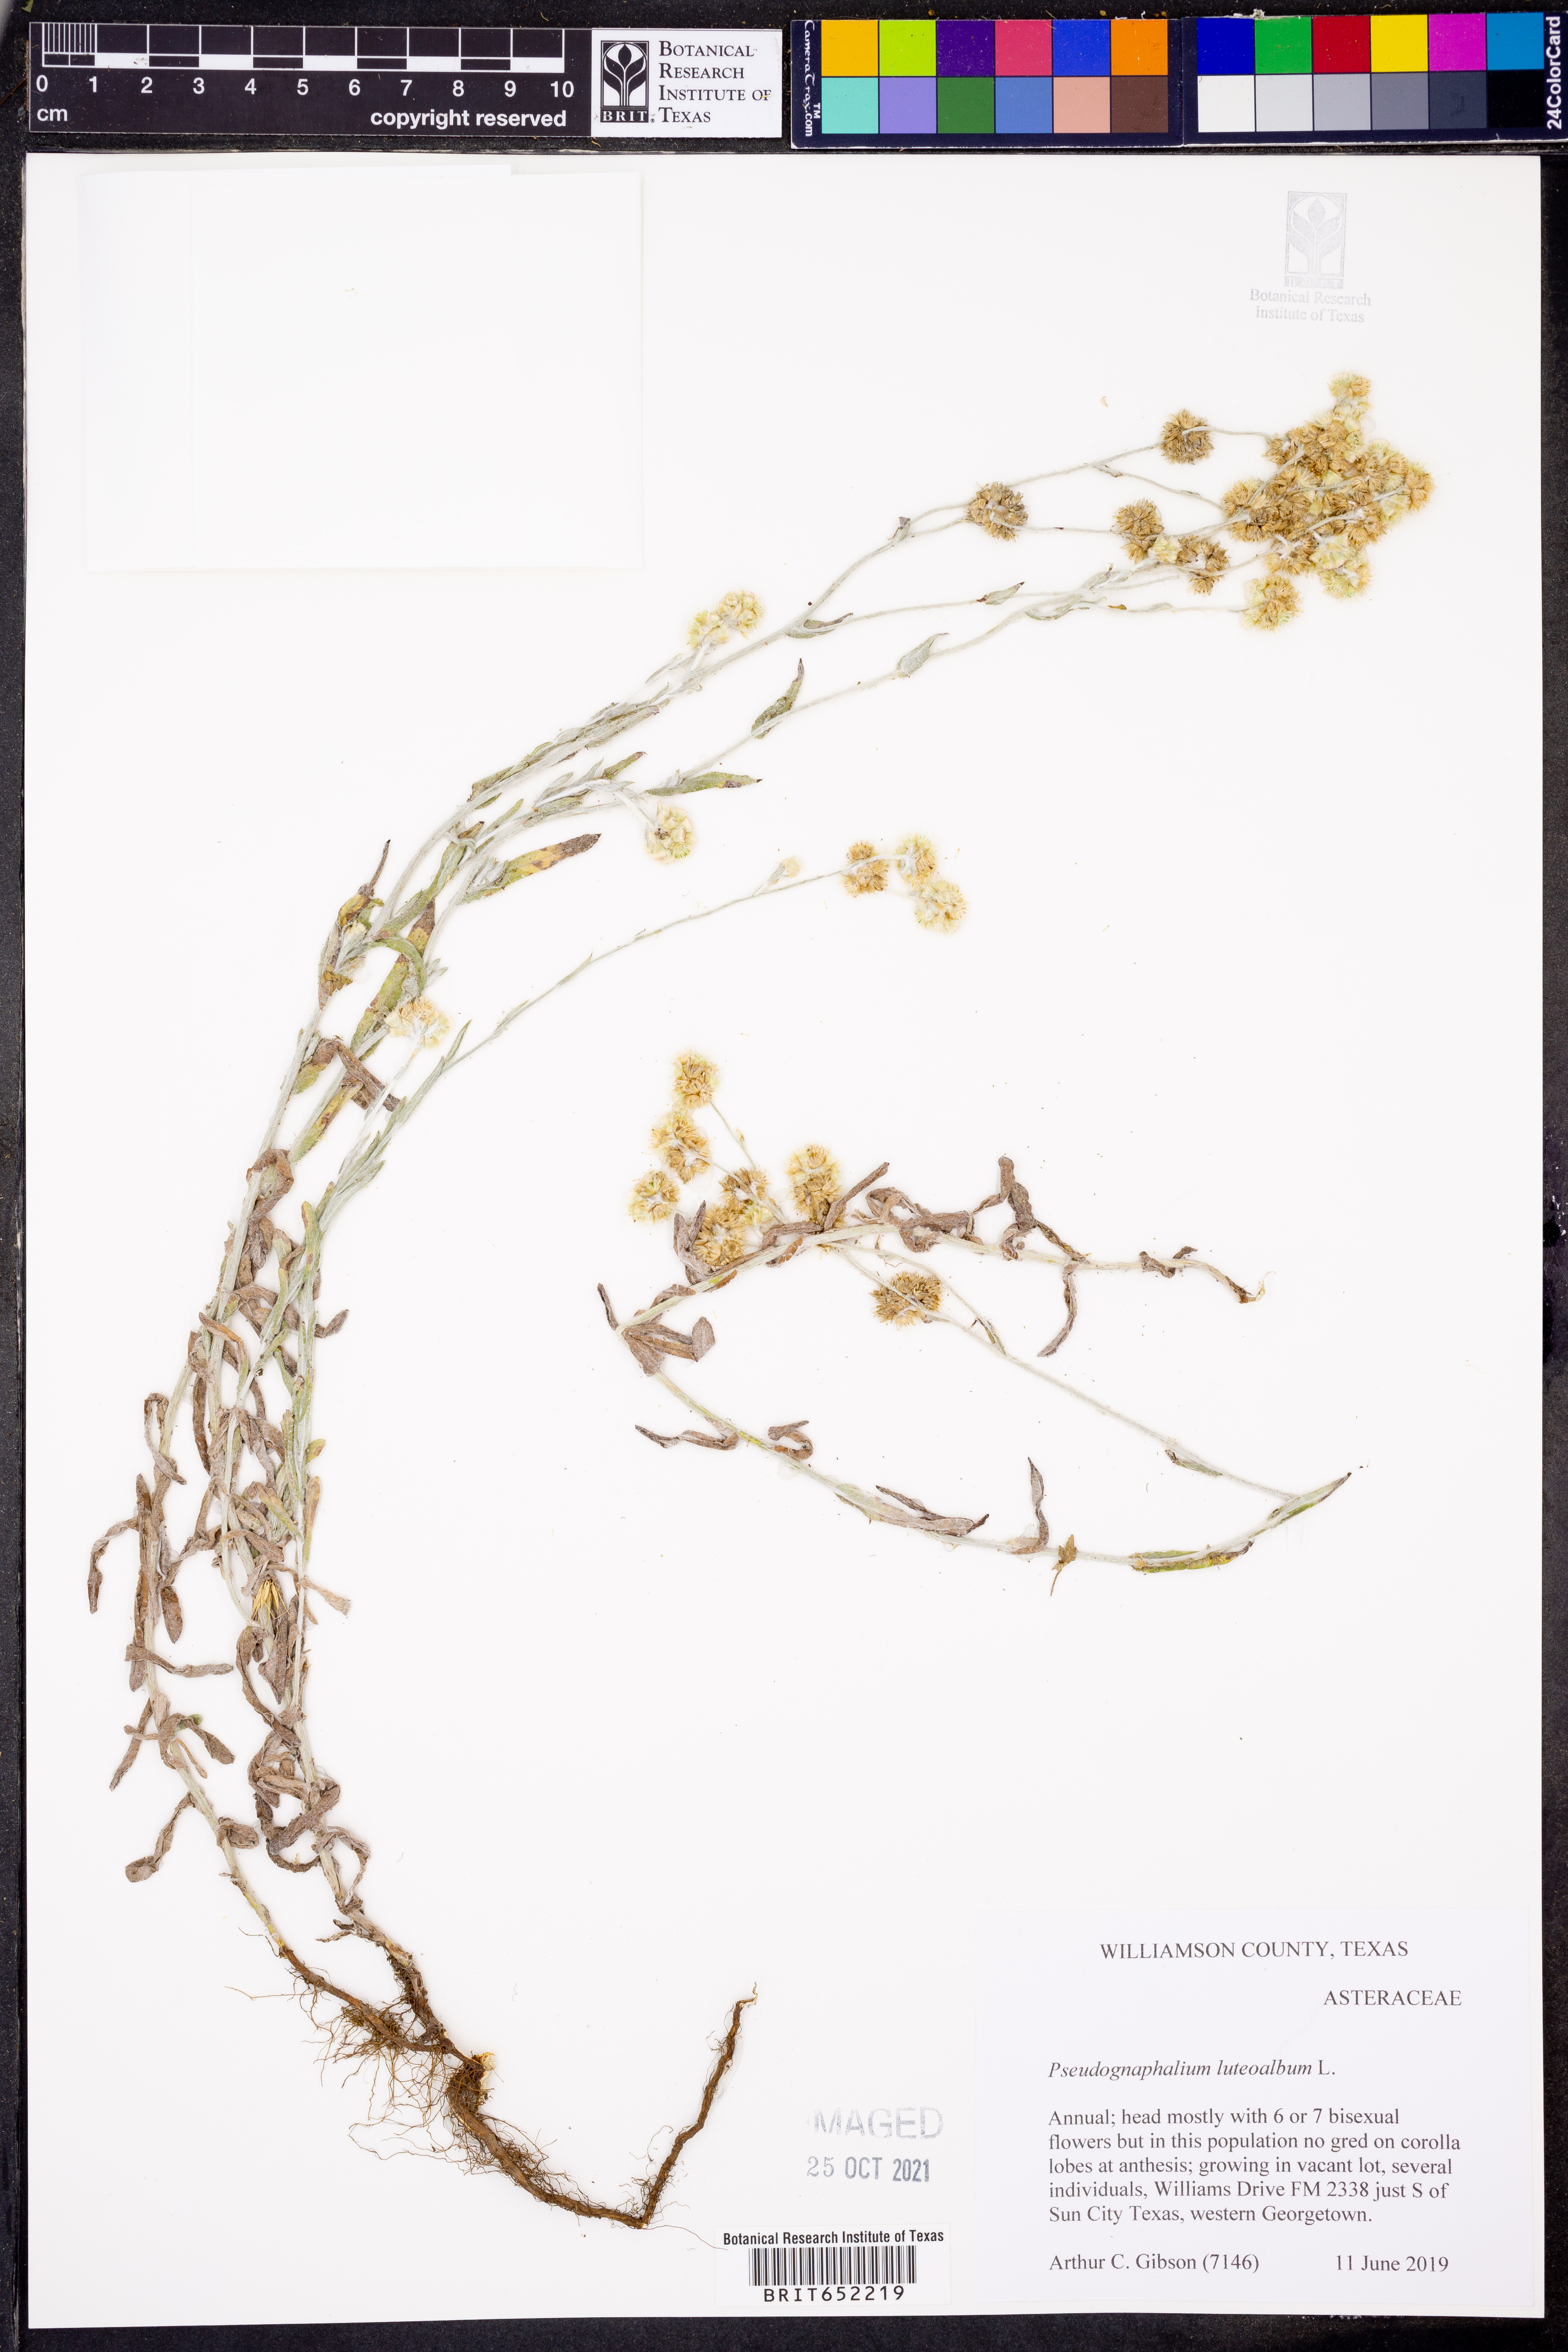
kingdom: Plantae
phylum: Tracheophyta
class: Magnoliopsida
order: Asterales
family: Asteraceae
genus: Helichrysum
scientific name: Helichrysum luteoalbum
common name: Daisy
